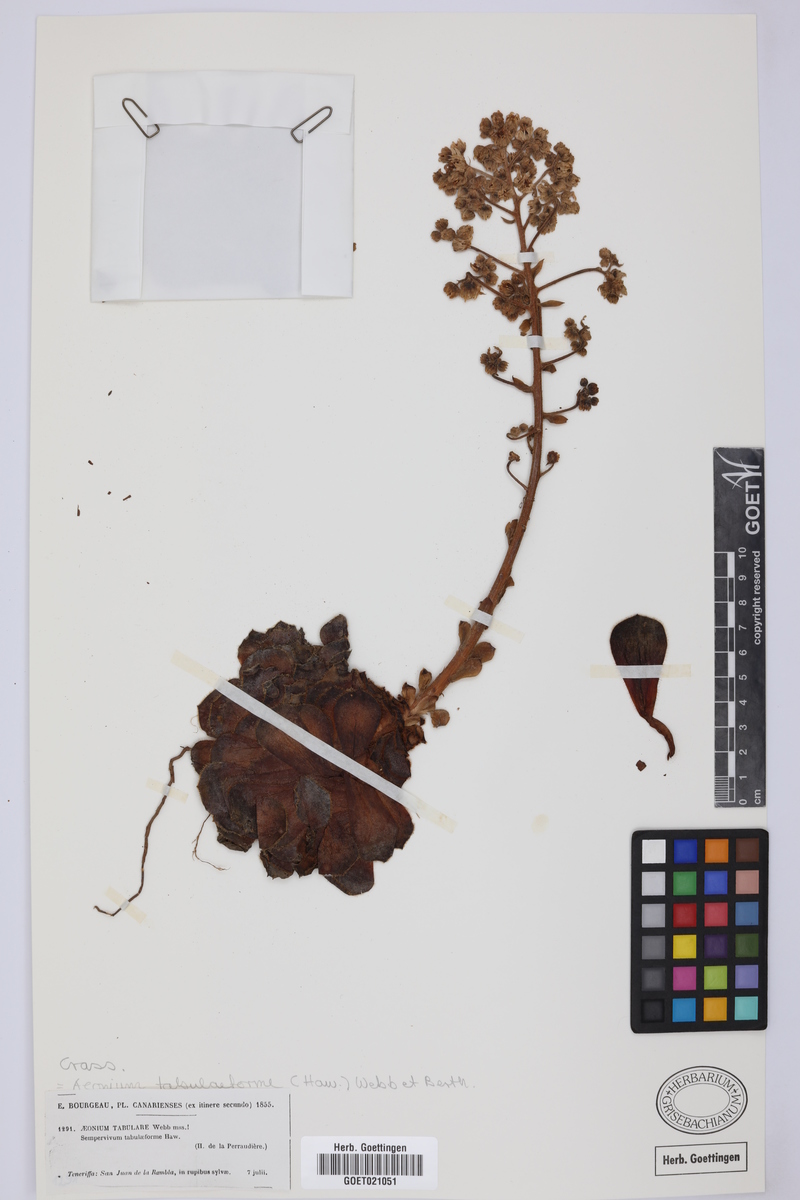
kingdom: Plantae
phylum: Tracheophyta
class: Magnoliopsida
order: Saxifragales
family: Crassulaceae
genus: Aeonium
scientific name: Aeonium tabulaeforme
